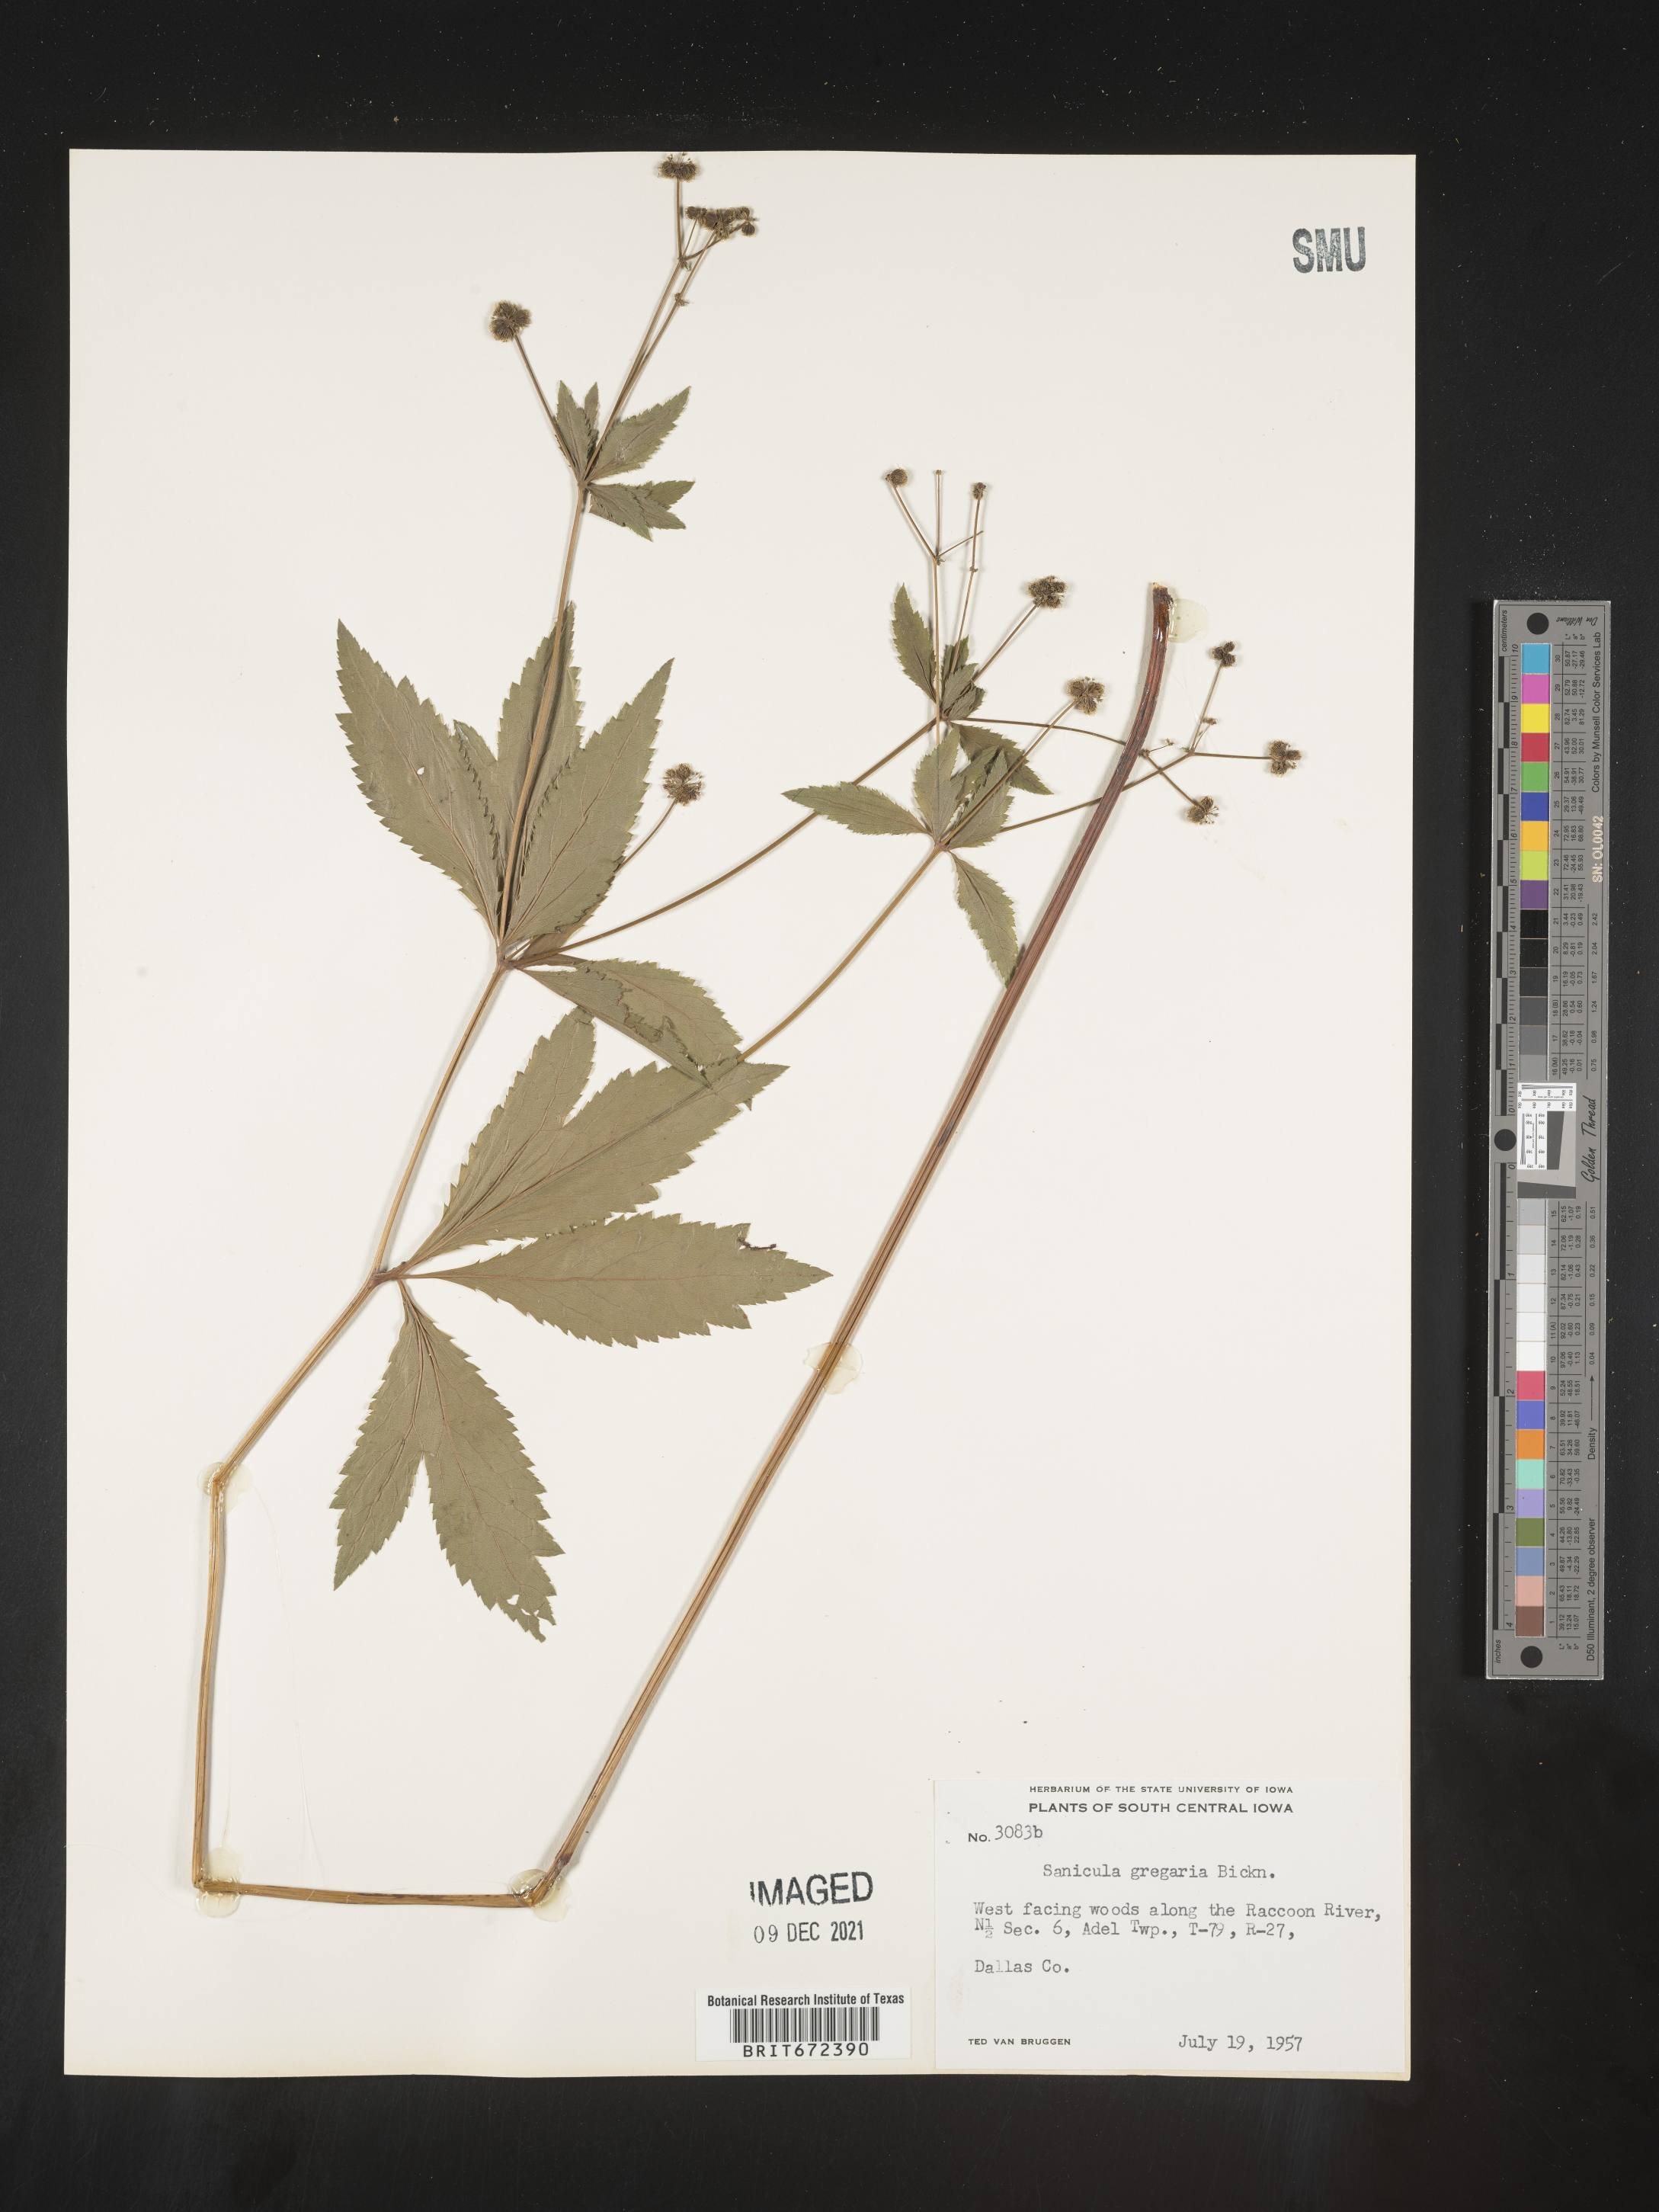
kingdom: Plantae
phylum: Tracheophyta
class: Magnoliopsida
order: Apiales
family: Apiaceae
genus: Sanicula
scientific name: Sanicula odorata
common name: Cluster sanicle
